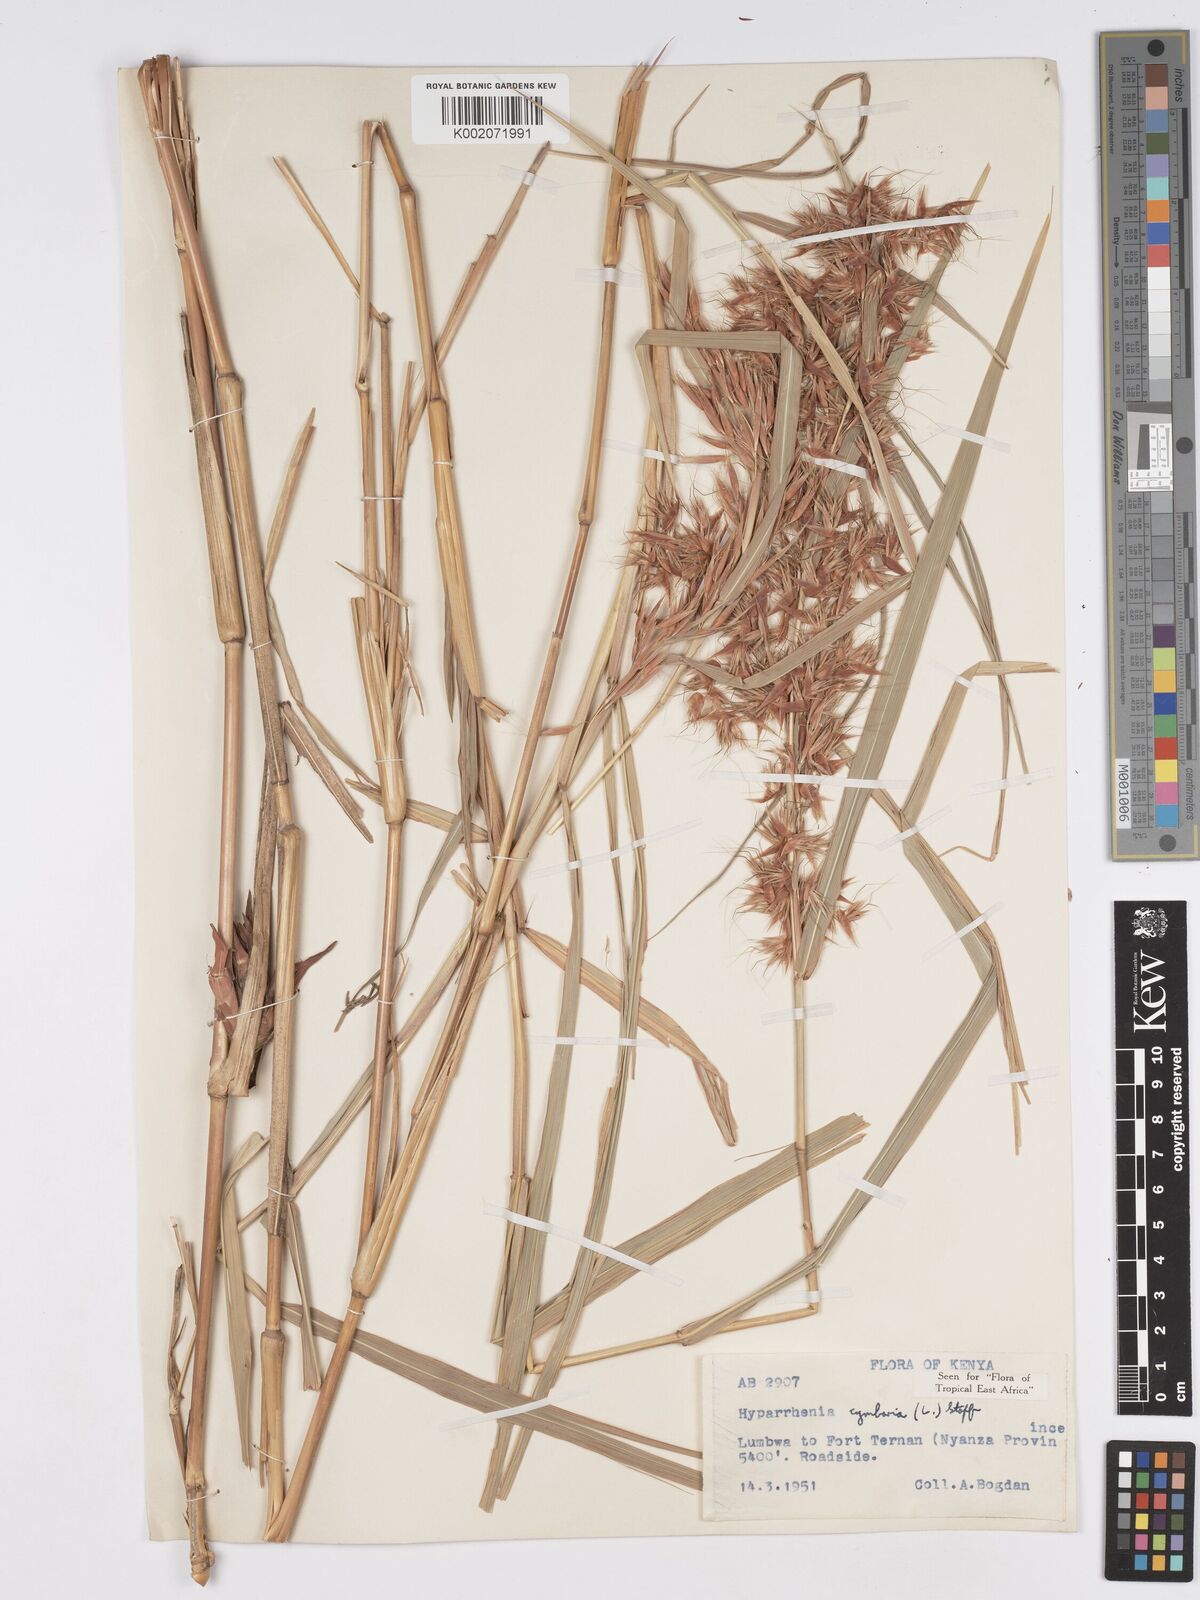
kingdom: Plantae
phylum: Tracheophyta
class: Liliopsida
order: Poales
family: Poaceae
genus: Hyparrhenia
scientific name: Hyparrhenia cymbaria
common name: Boat thatching grass
